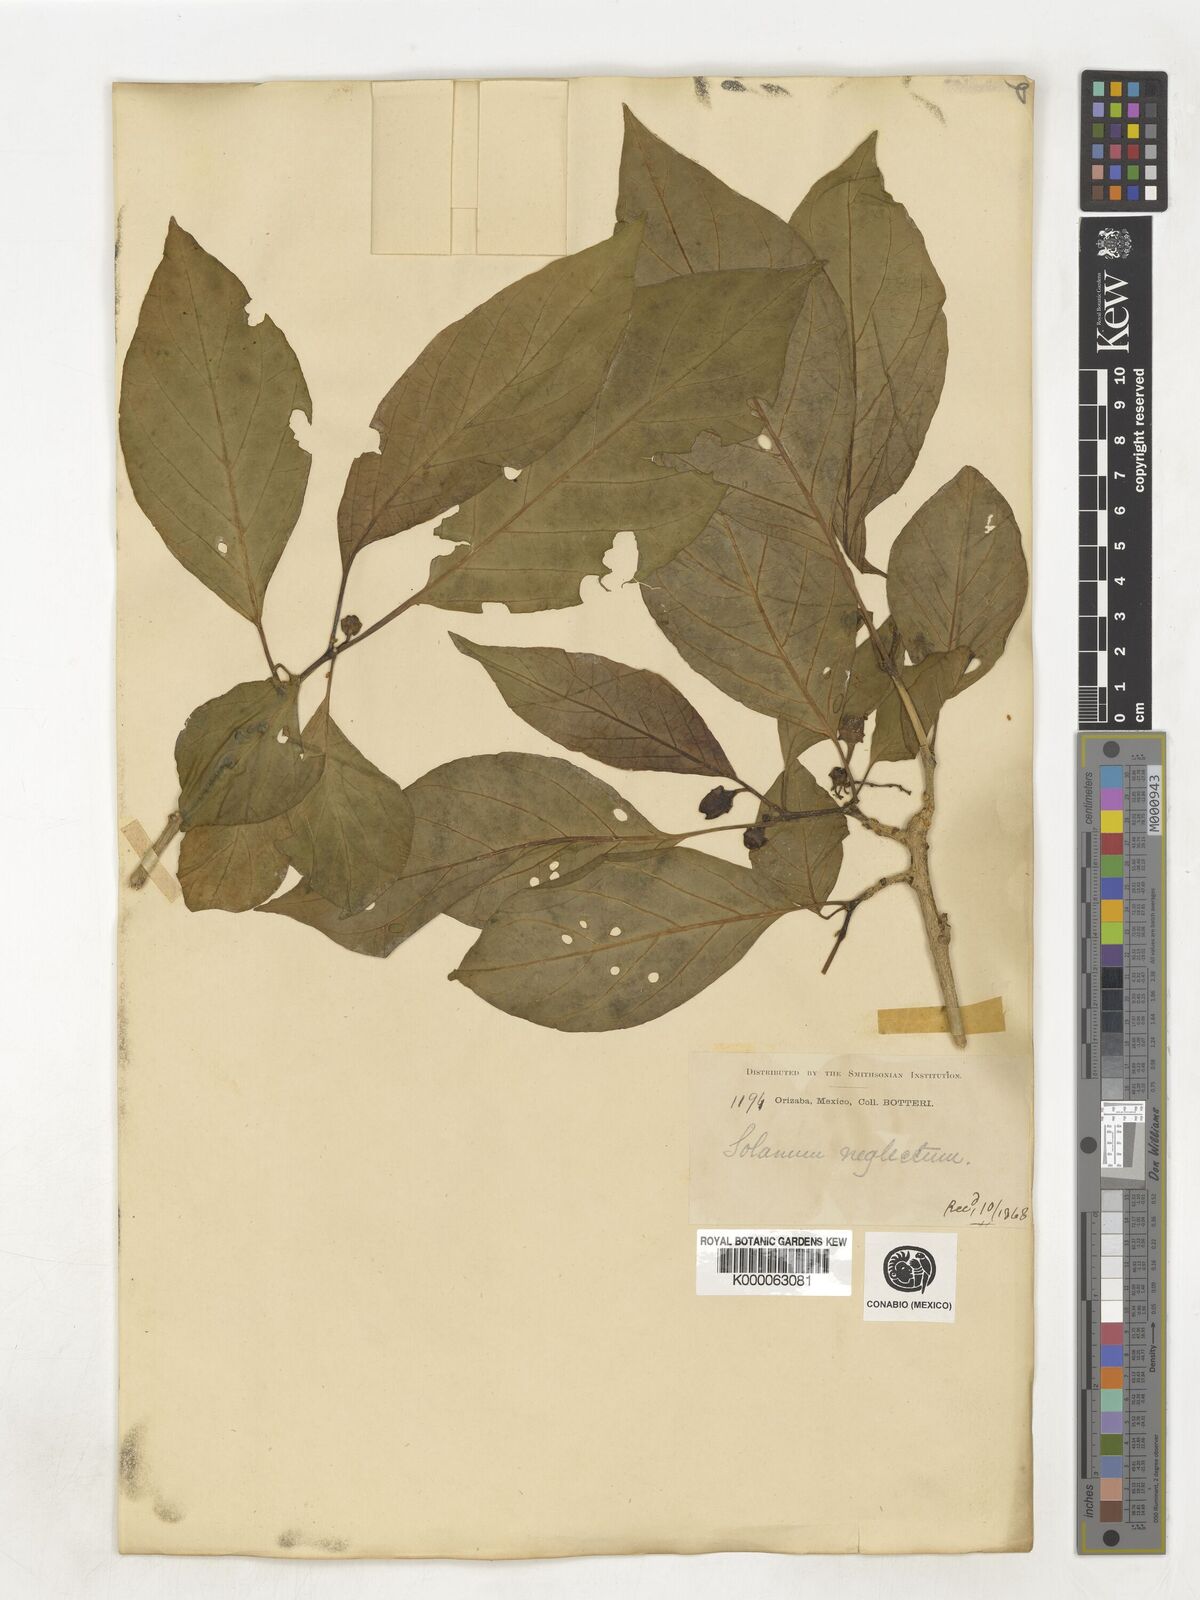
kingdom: Plantae
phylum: Tracheophyta
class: Magnoliopsida
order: Solanales
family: Solanaceae
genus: Lycianthes
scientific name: Lycianthes
